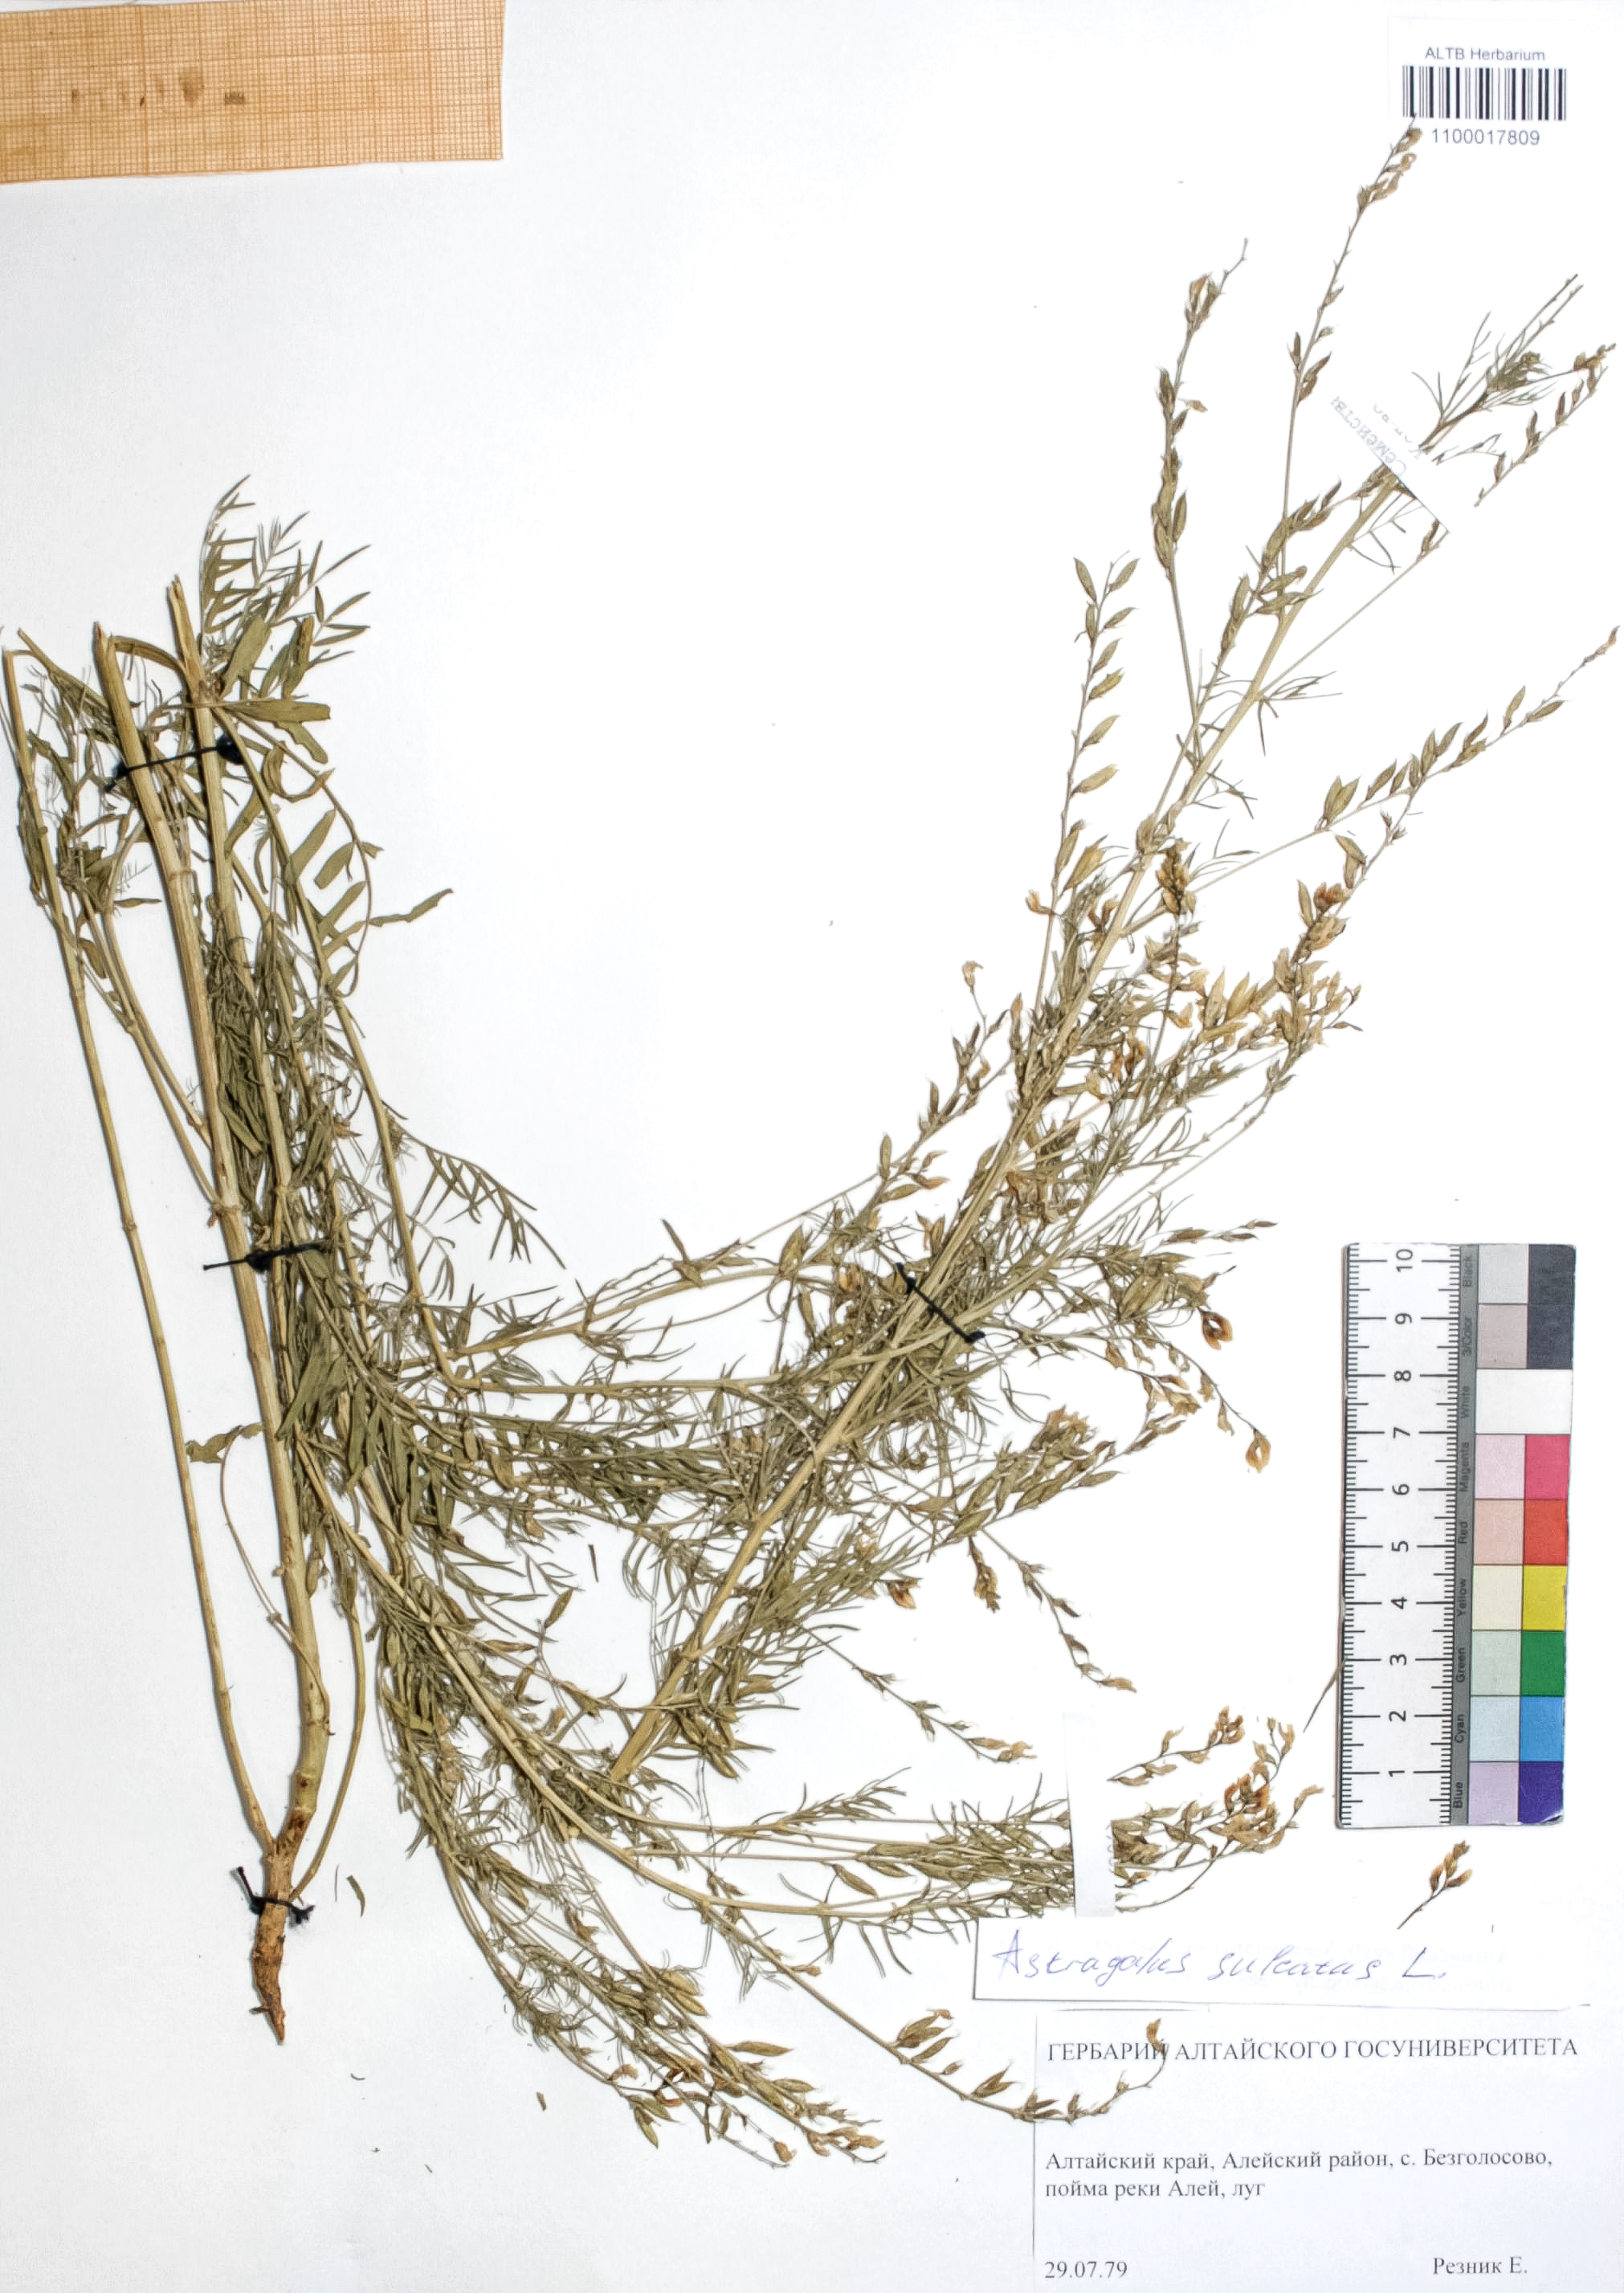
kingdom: Plantae
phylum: Tracheophyta
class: Magnoliopsida
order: Fabales
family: Fabaceae
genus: Astragalus
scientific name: Astragalus sulcatus
